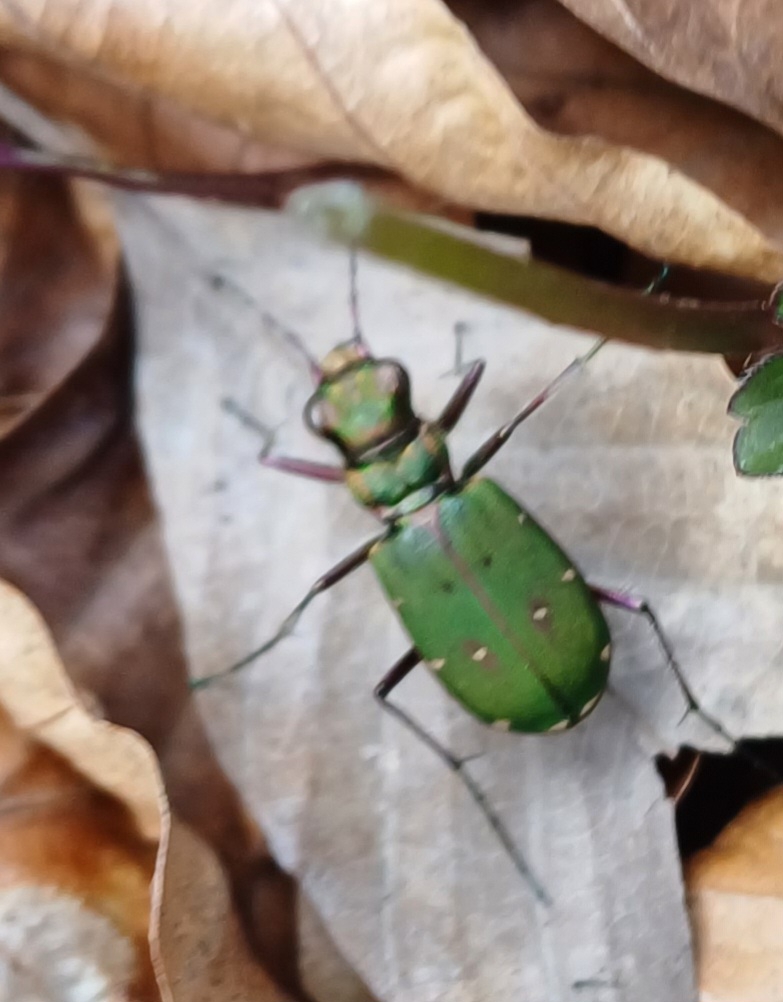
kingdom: Animalia
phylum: Arthropoda
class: Insecta
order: Coleoptera
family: Carabidae
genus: Cicindela
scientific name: Cicindela campestris
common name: Grøn sandspringer
